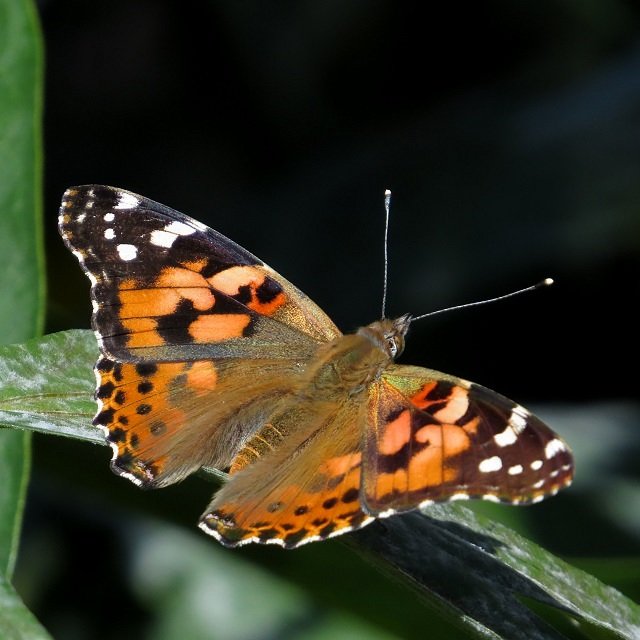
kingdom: Animalia
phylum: Arthropoda
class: Insecta
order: Lepidoptera
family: Nymphalidae
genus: Vanessa
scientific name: Vanessa cardui
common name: Painted Lady
